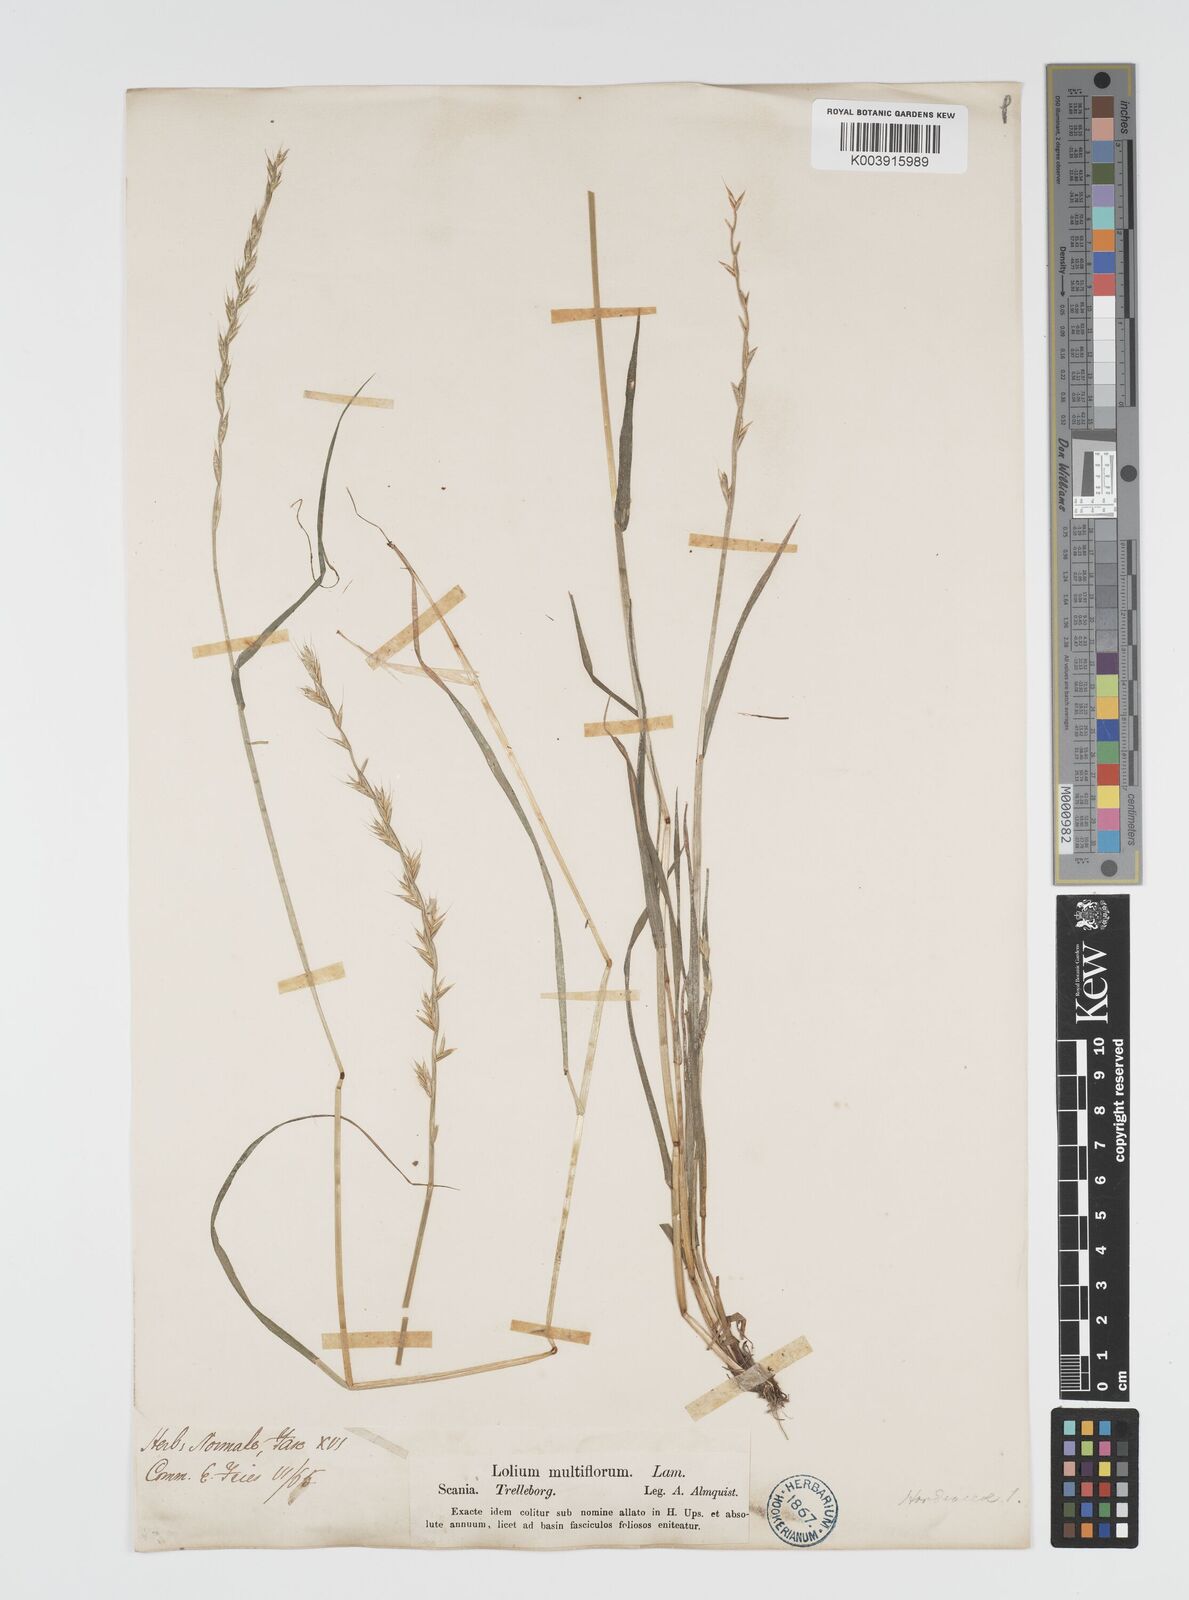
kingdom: Plantae
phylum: Tracheophyta
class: Liliopsida
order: Poales
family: Poaceae
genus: Lolium
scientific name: Lolium multiflorum
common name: Annual ryegrass
